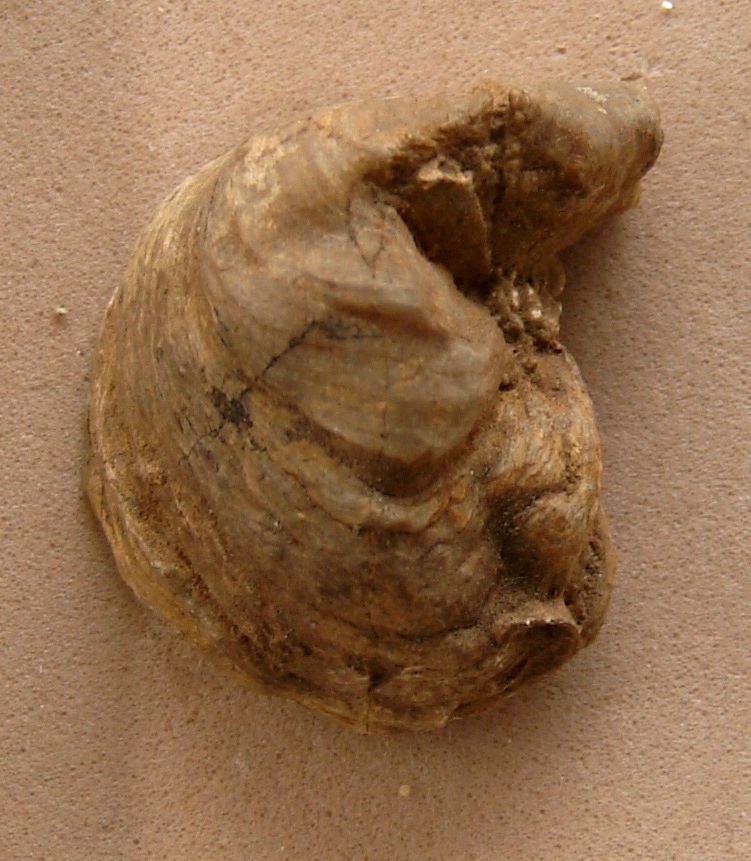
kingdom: Animalia
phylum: Mollusca
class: Bivalvia
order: Ostreida
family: Gryphaeidae
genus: Exogyra
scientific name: Exogyra
